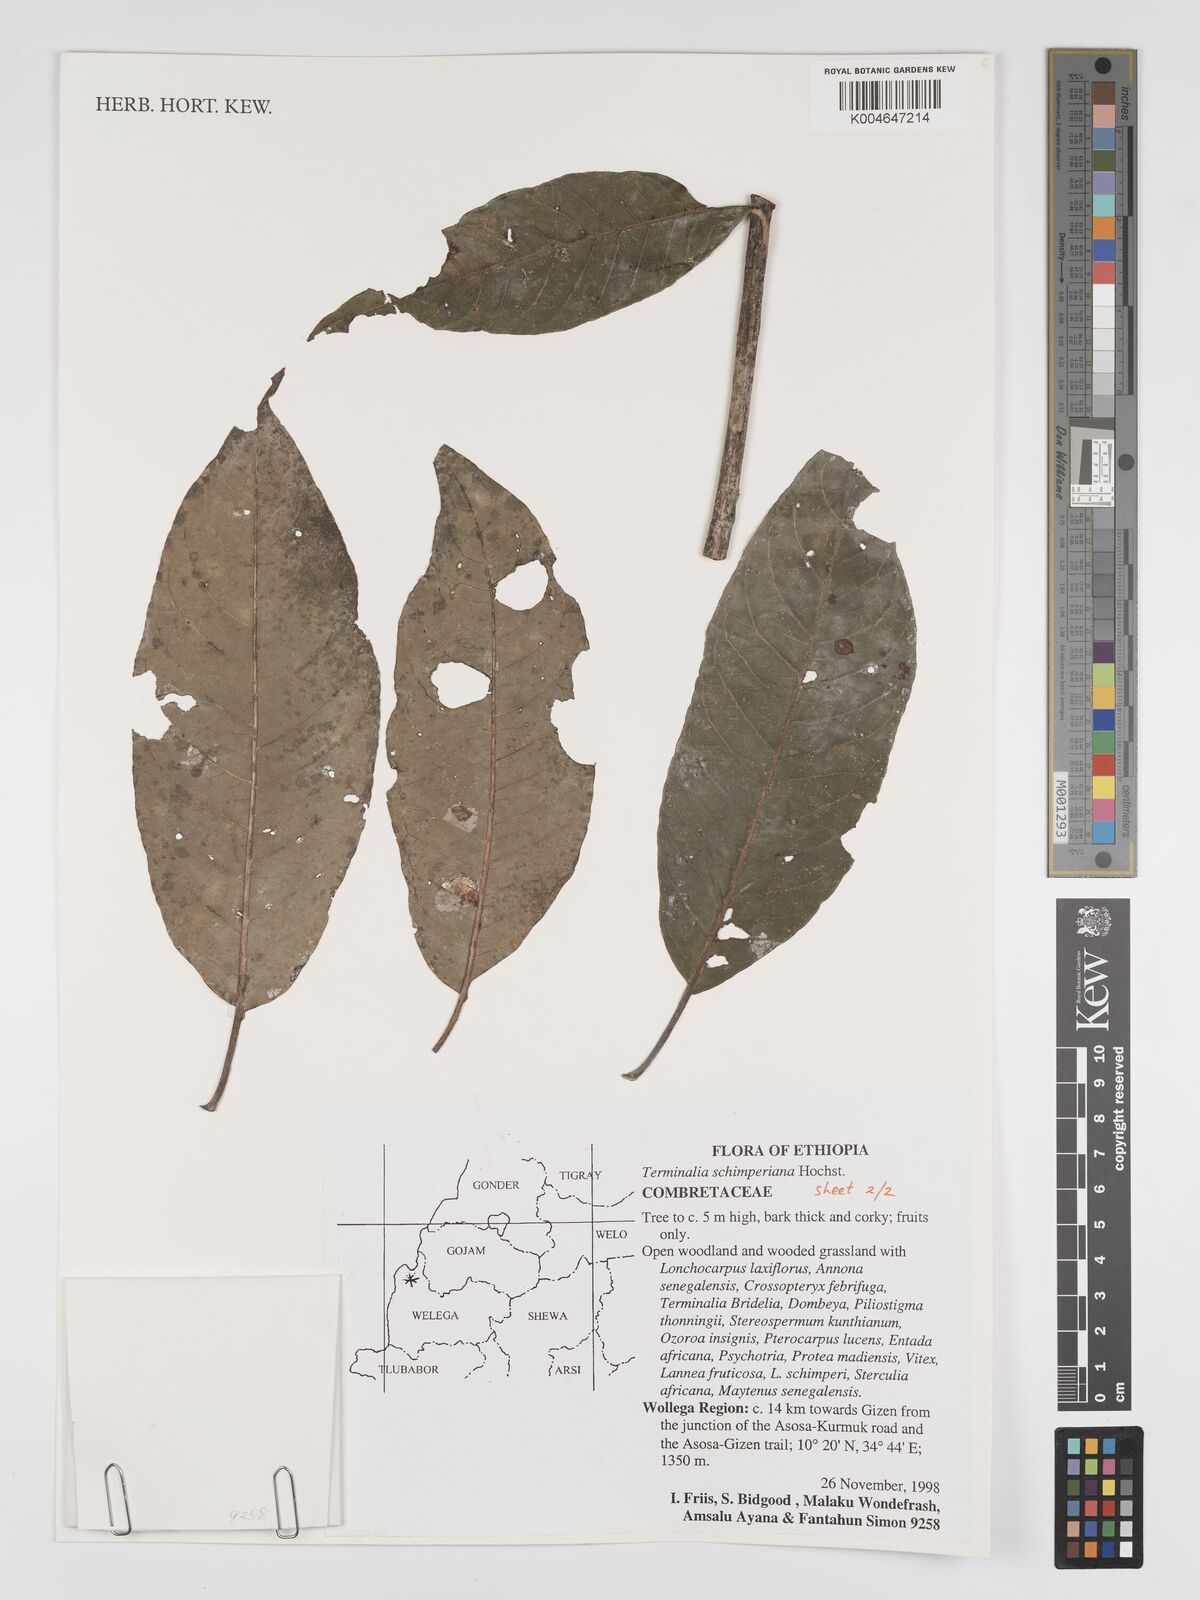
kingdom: Plantae
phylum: Tracheophyta
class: Magnoliopsida
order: Myrtales
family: Combretaceae
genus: Terminalia
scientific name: Terminalia schimperiana
